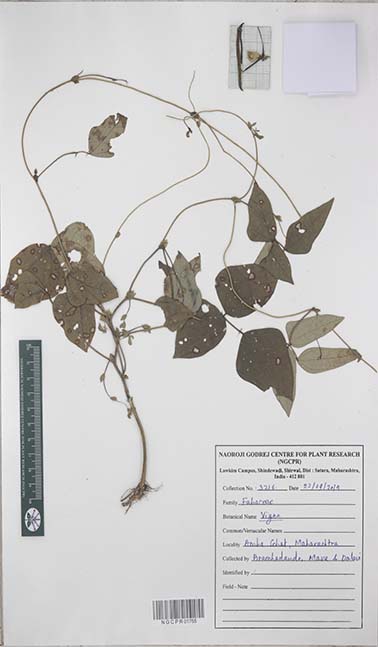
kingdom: Plantae
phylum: Tracheophyta
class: Magnoliopsida
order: Fabales
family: Fabaceae
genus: Vigna
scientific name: Vigna
